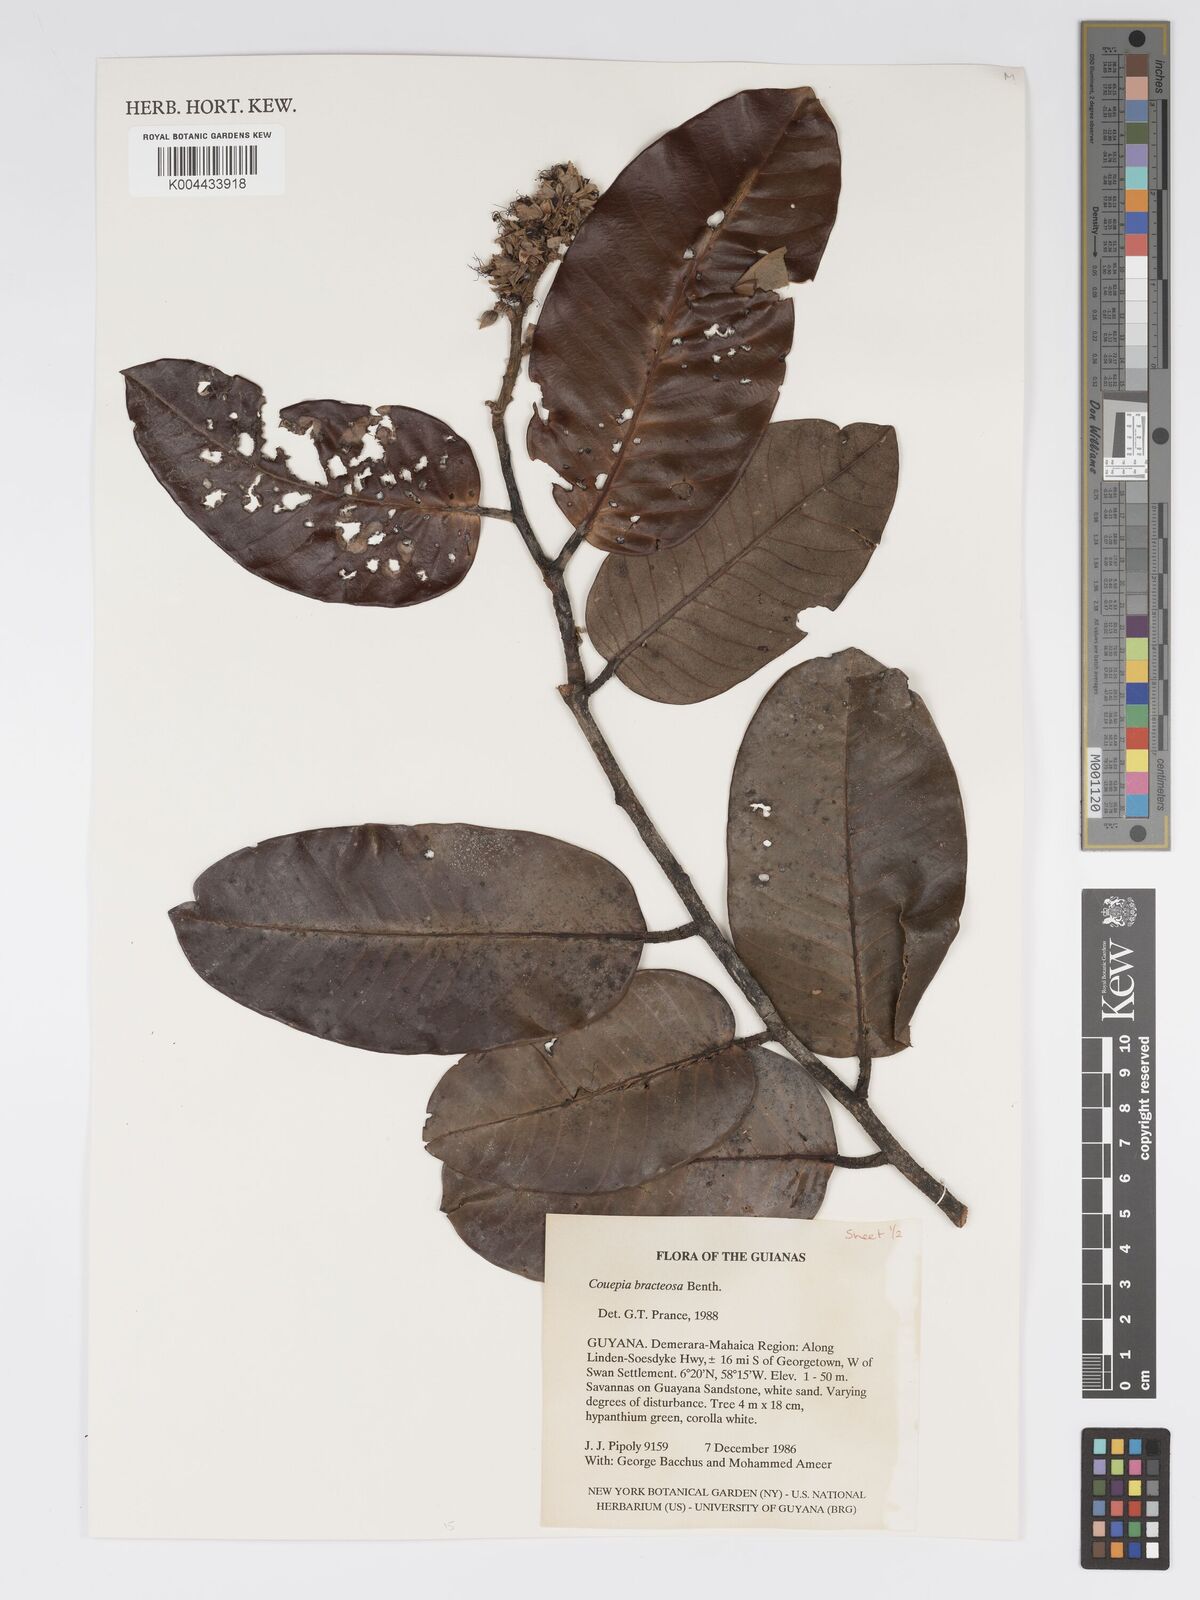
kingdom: Plantae
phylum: Tracheophyta
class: Magnoliopsida
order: Malpighiales
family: Chrysobalanaceae
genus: Couepia
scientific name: Couepia bracteosa
